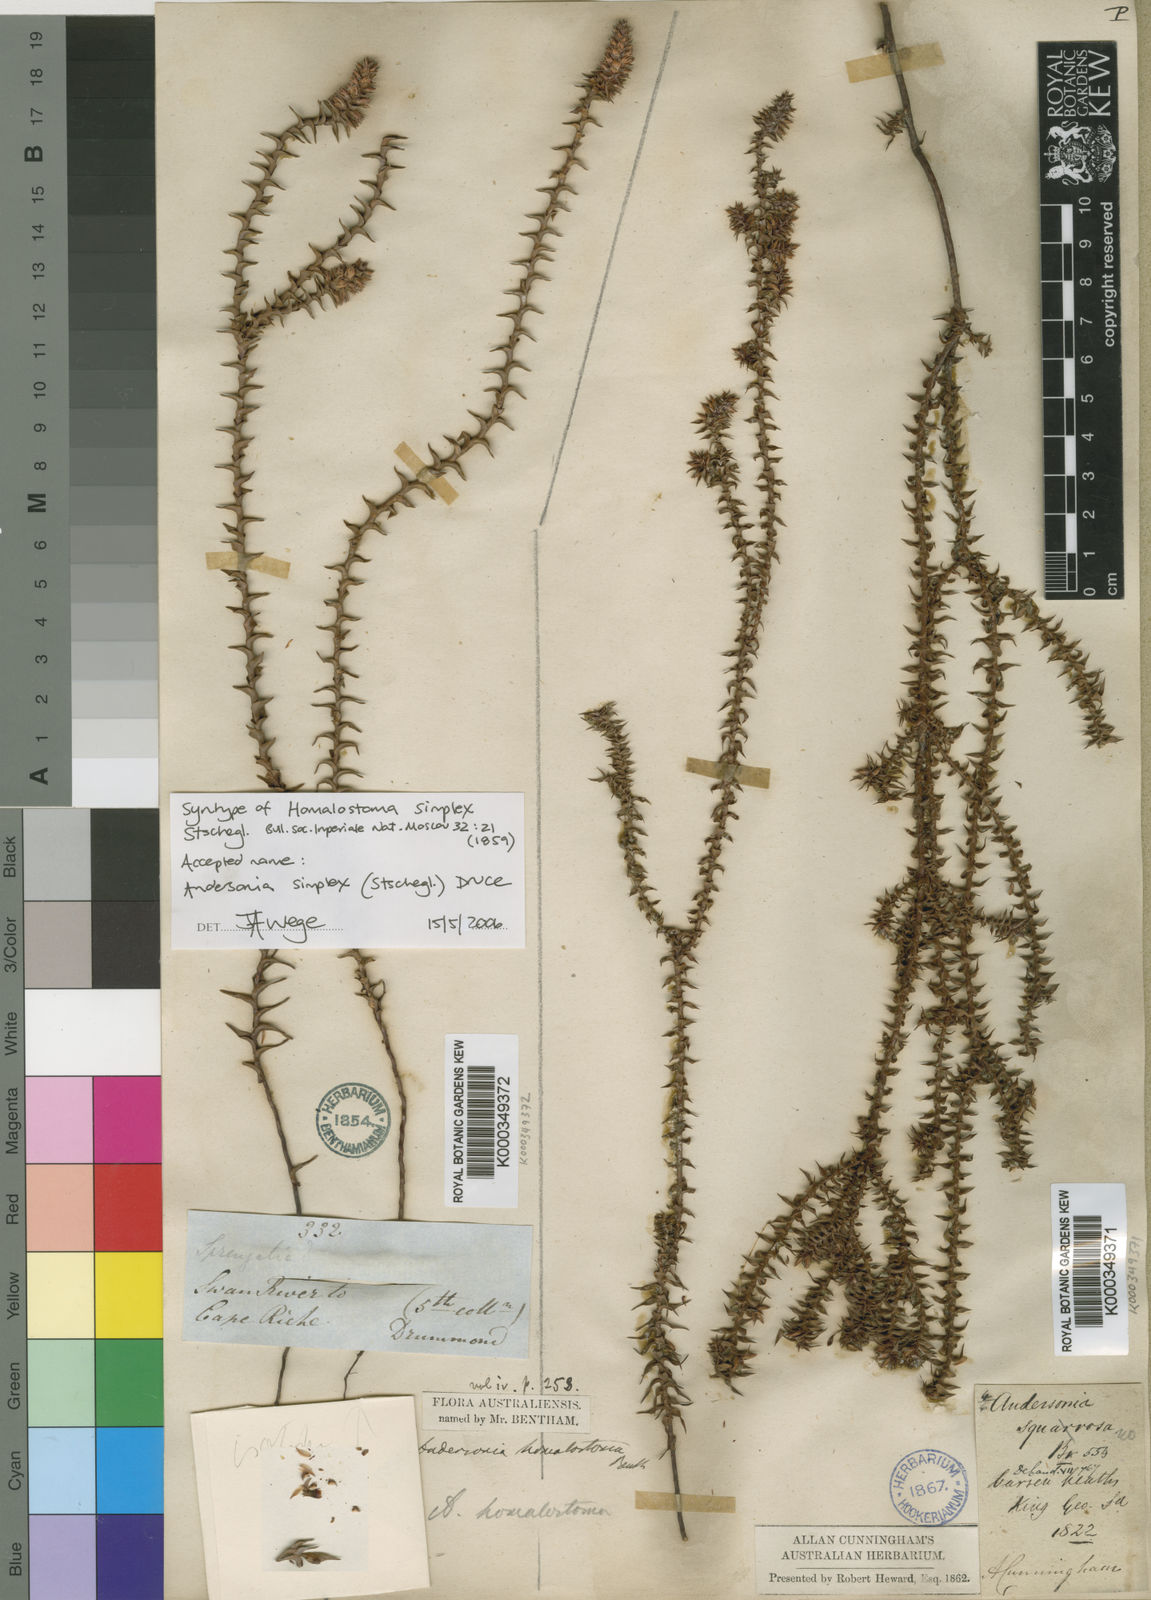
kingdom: Plantae
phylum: Tracheophyta
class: Magnoliopsida
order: Ericales
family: Ericaceae
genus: Andersonia
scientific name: Andersonia simplex
